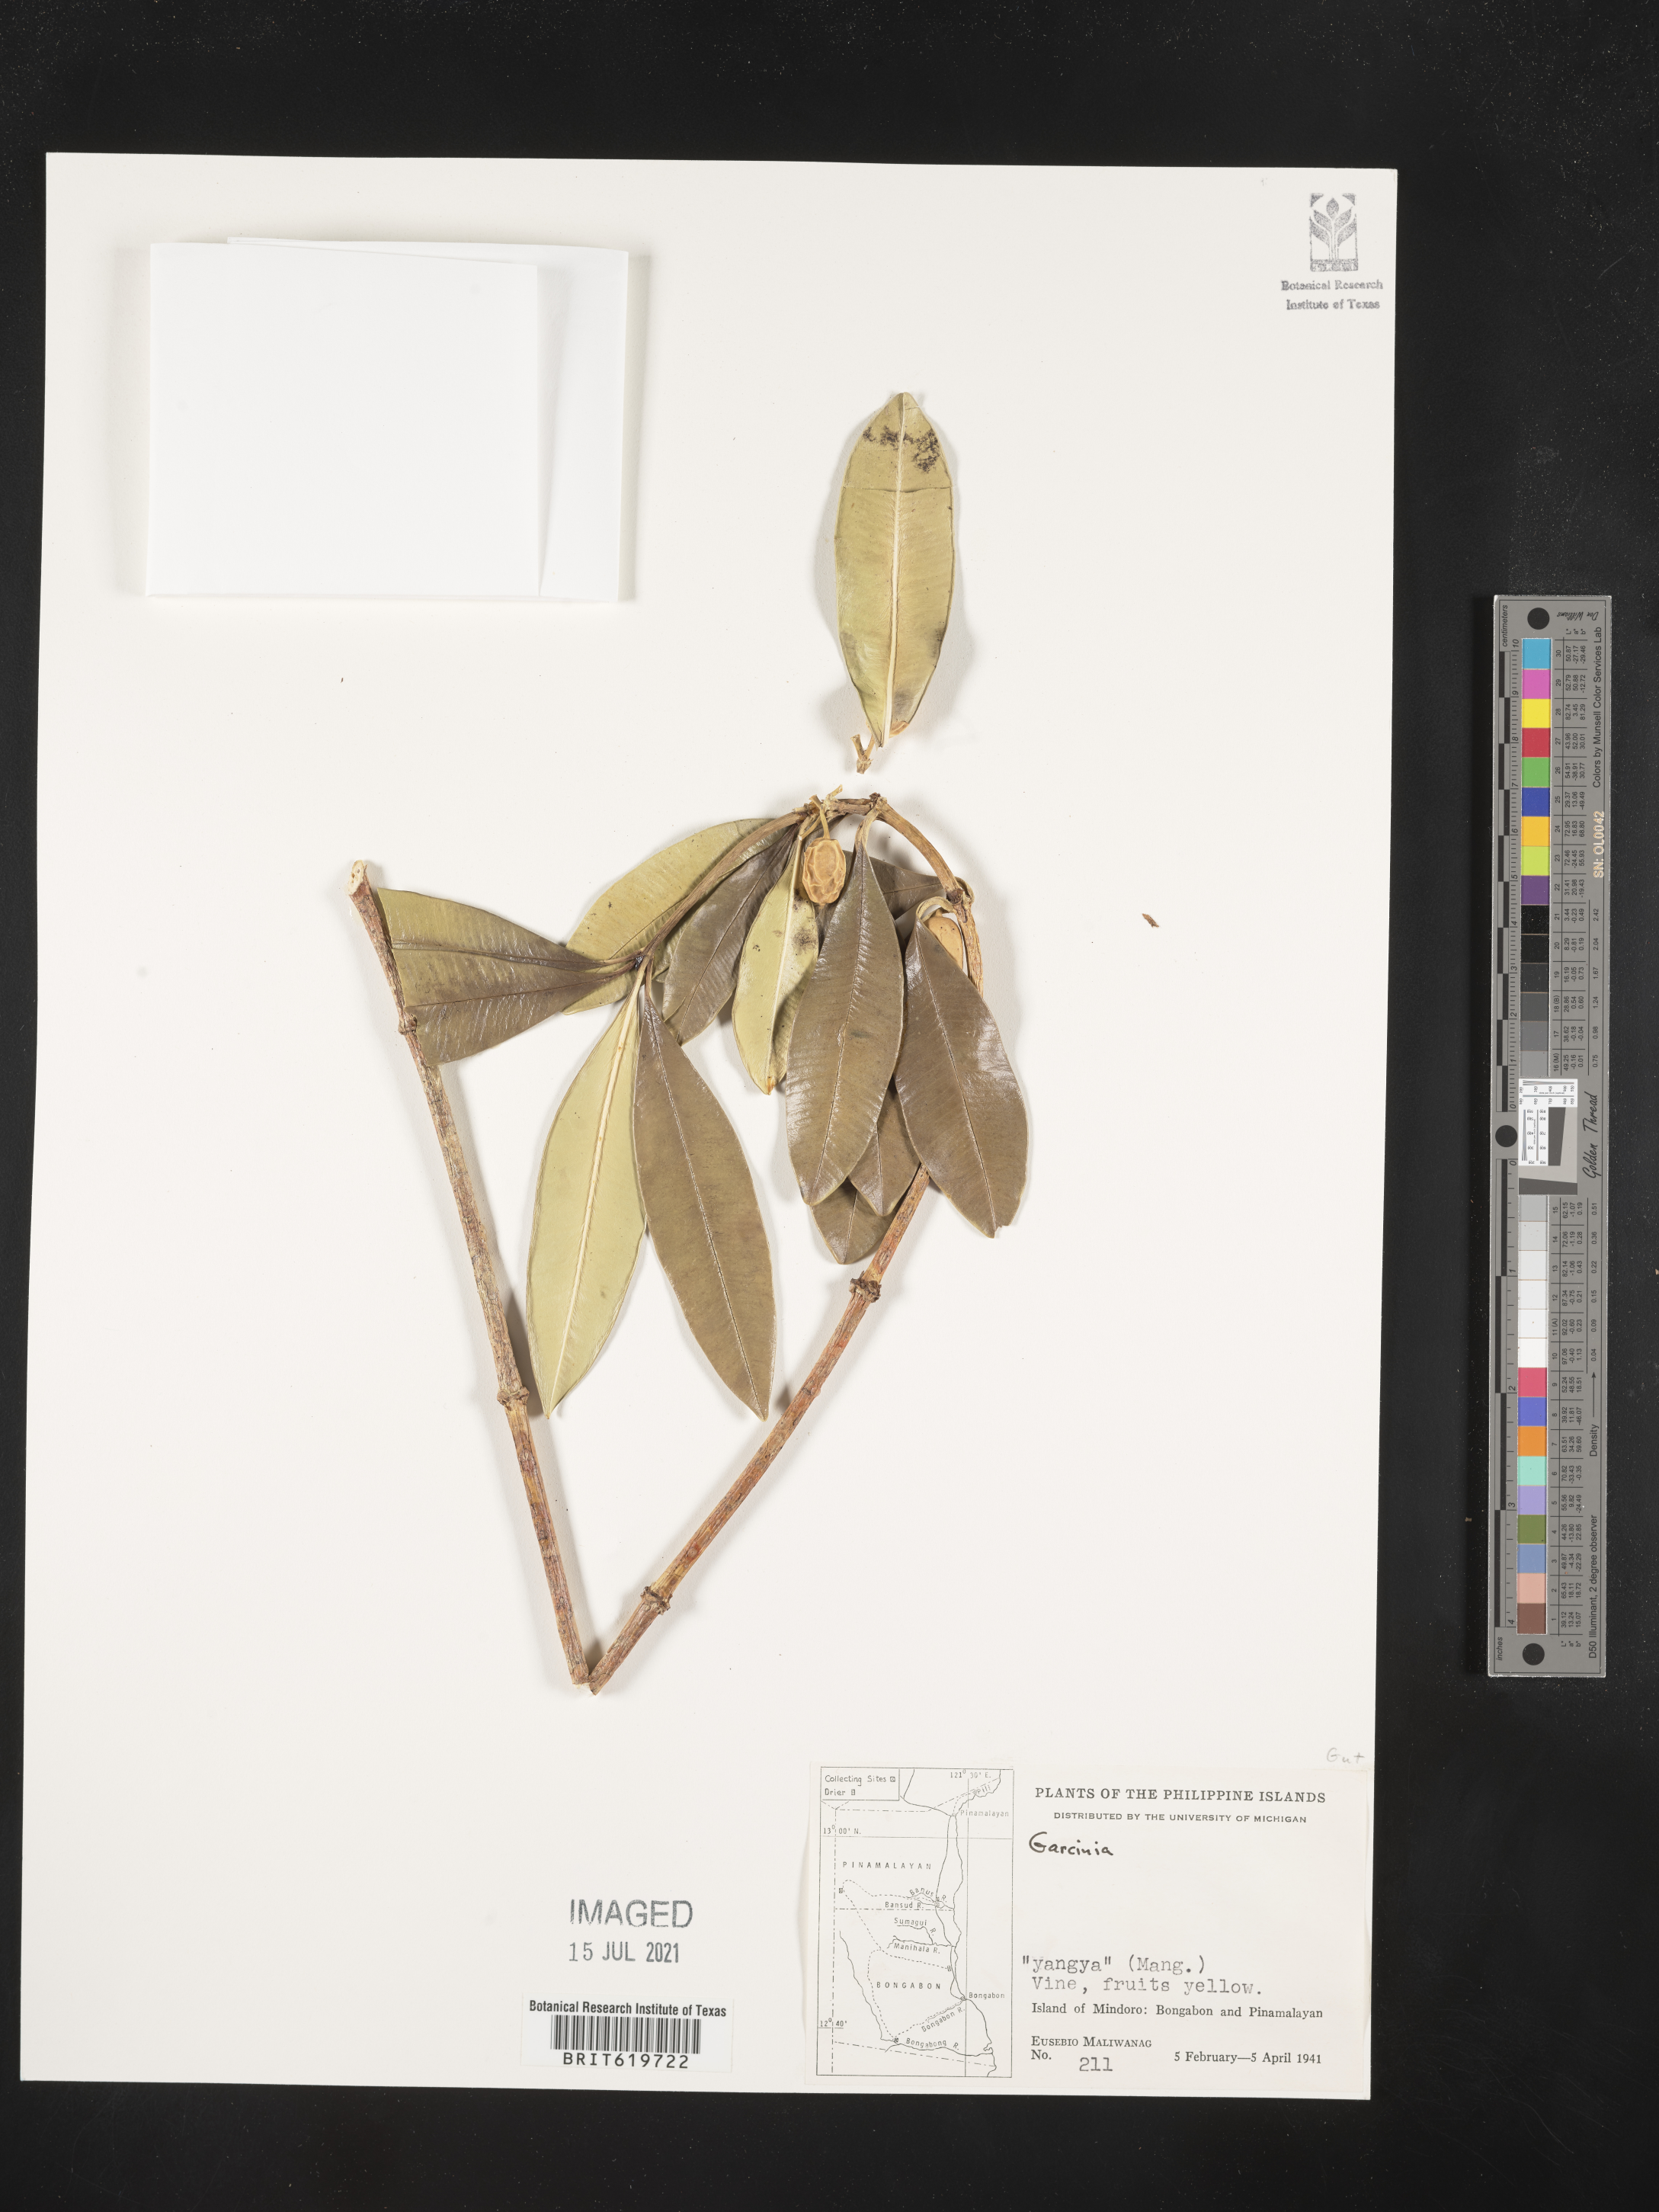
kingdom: Plantae
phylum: Tracheophyta
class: Magnoliopsida
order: Malpighiales
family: Clusiaceae
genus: Garcinia
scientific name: Garcinia
